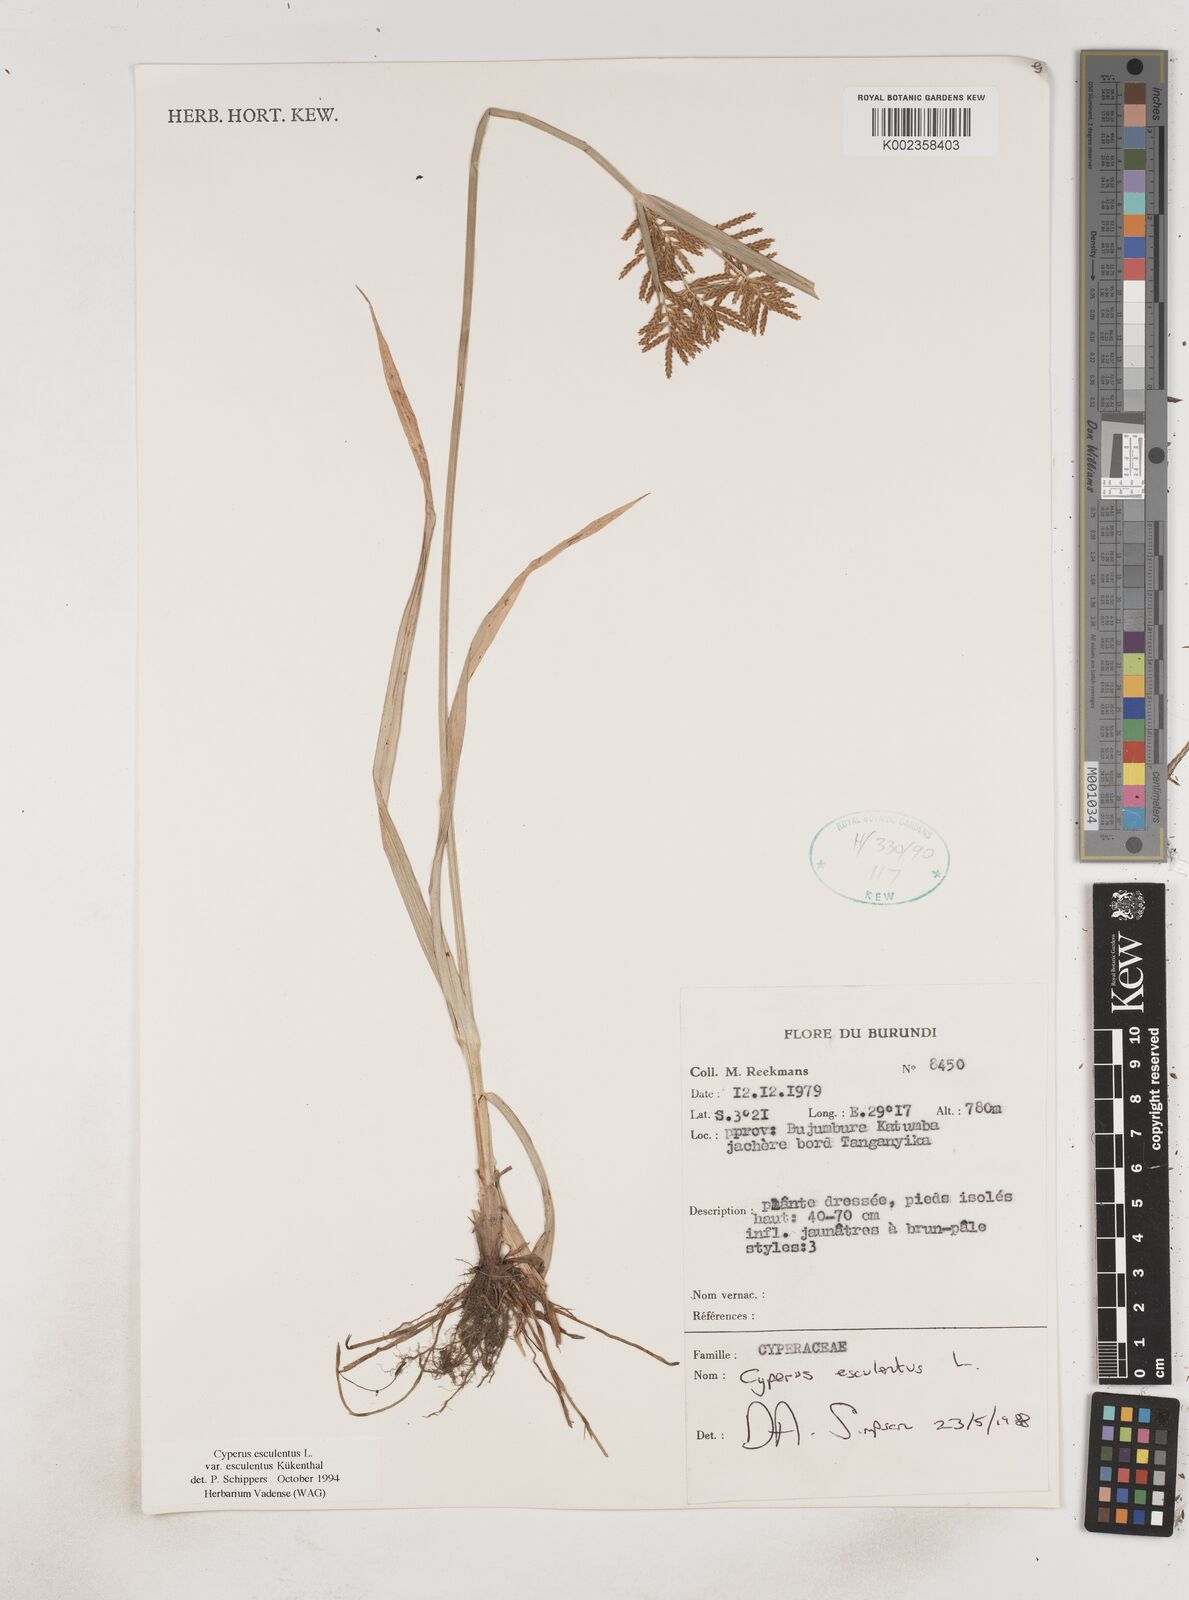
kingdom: Plantae
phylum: Tracheophyta
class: Liliopsida
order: Poales
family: Cyperaceae
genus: Cyperus
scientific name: Cyperus esculentus
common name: Yellow nutsedge
